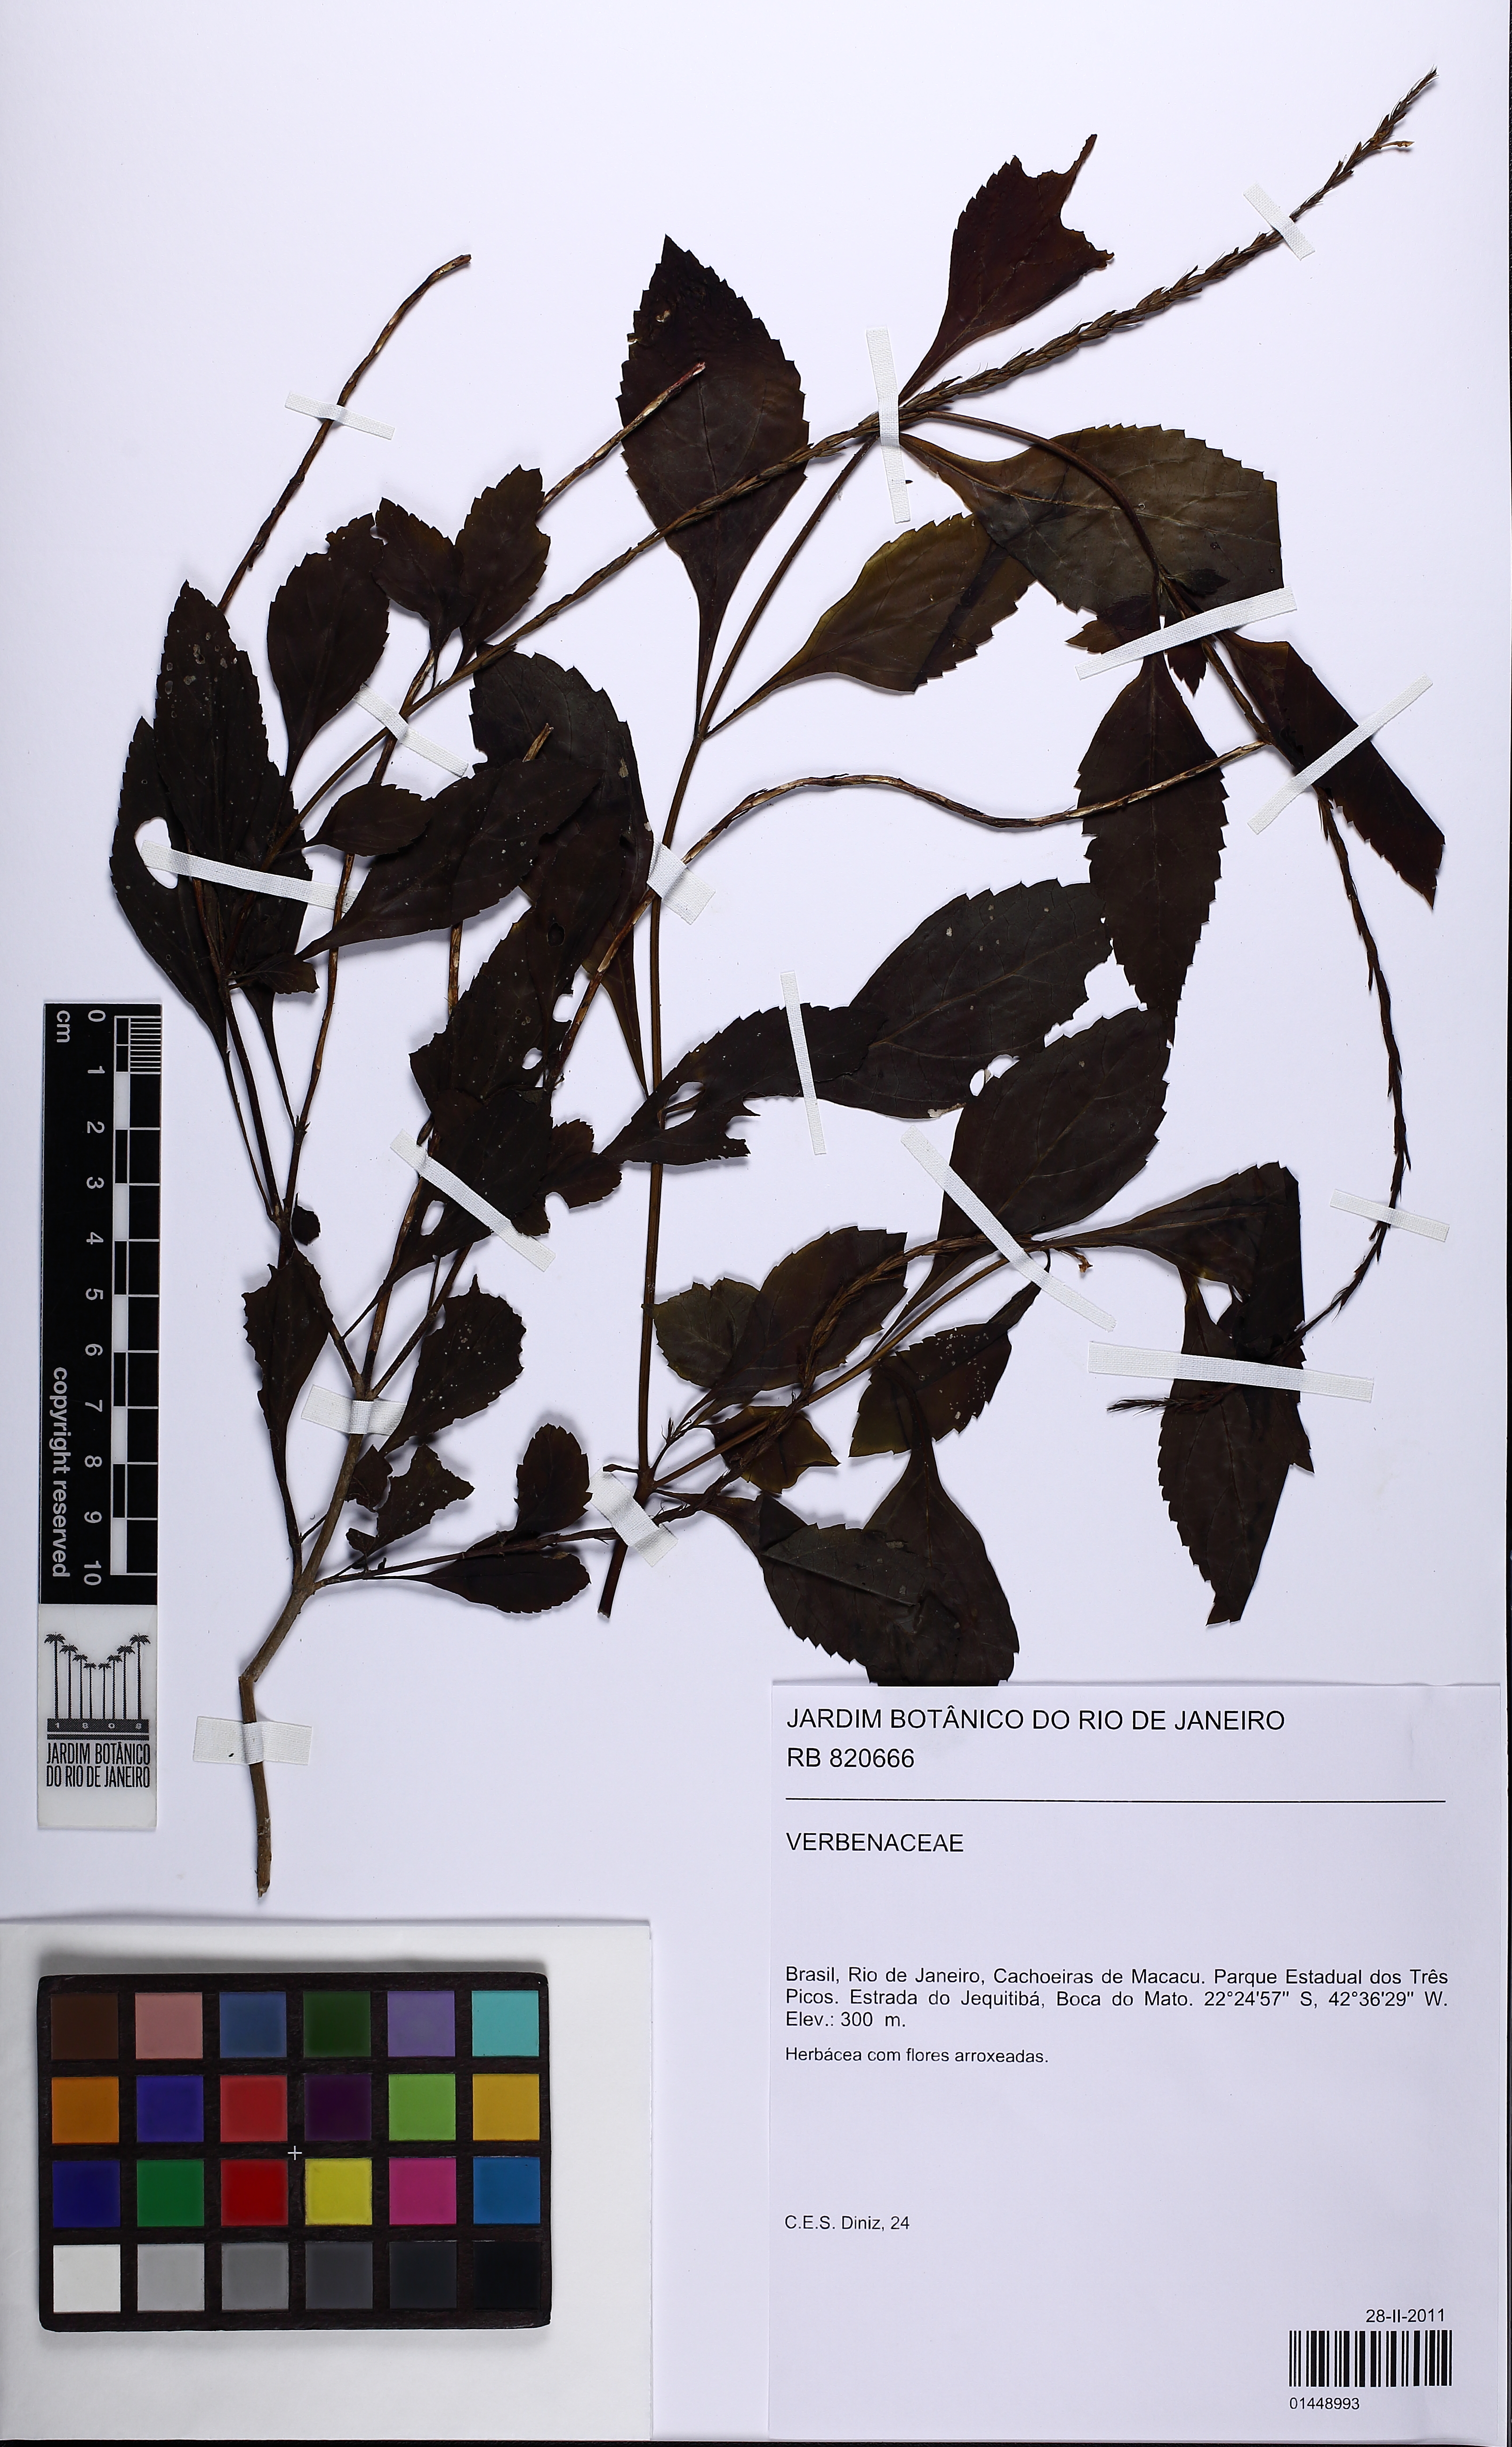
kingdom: Plantae
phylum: Tracheophyta
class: Magnoliopsida
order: Lamiales
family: Verbenaceae
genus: Stachytarpheta
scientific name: Stachytarpheta cayennensis
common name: Cayenne porterweed
